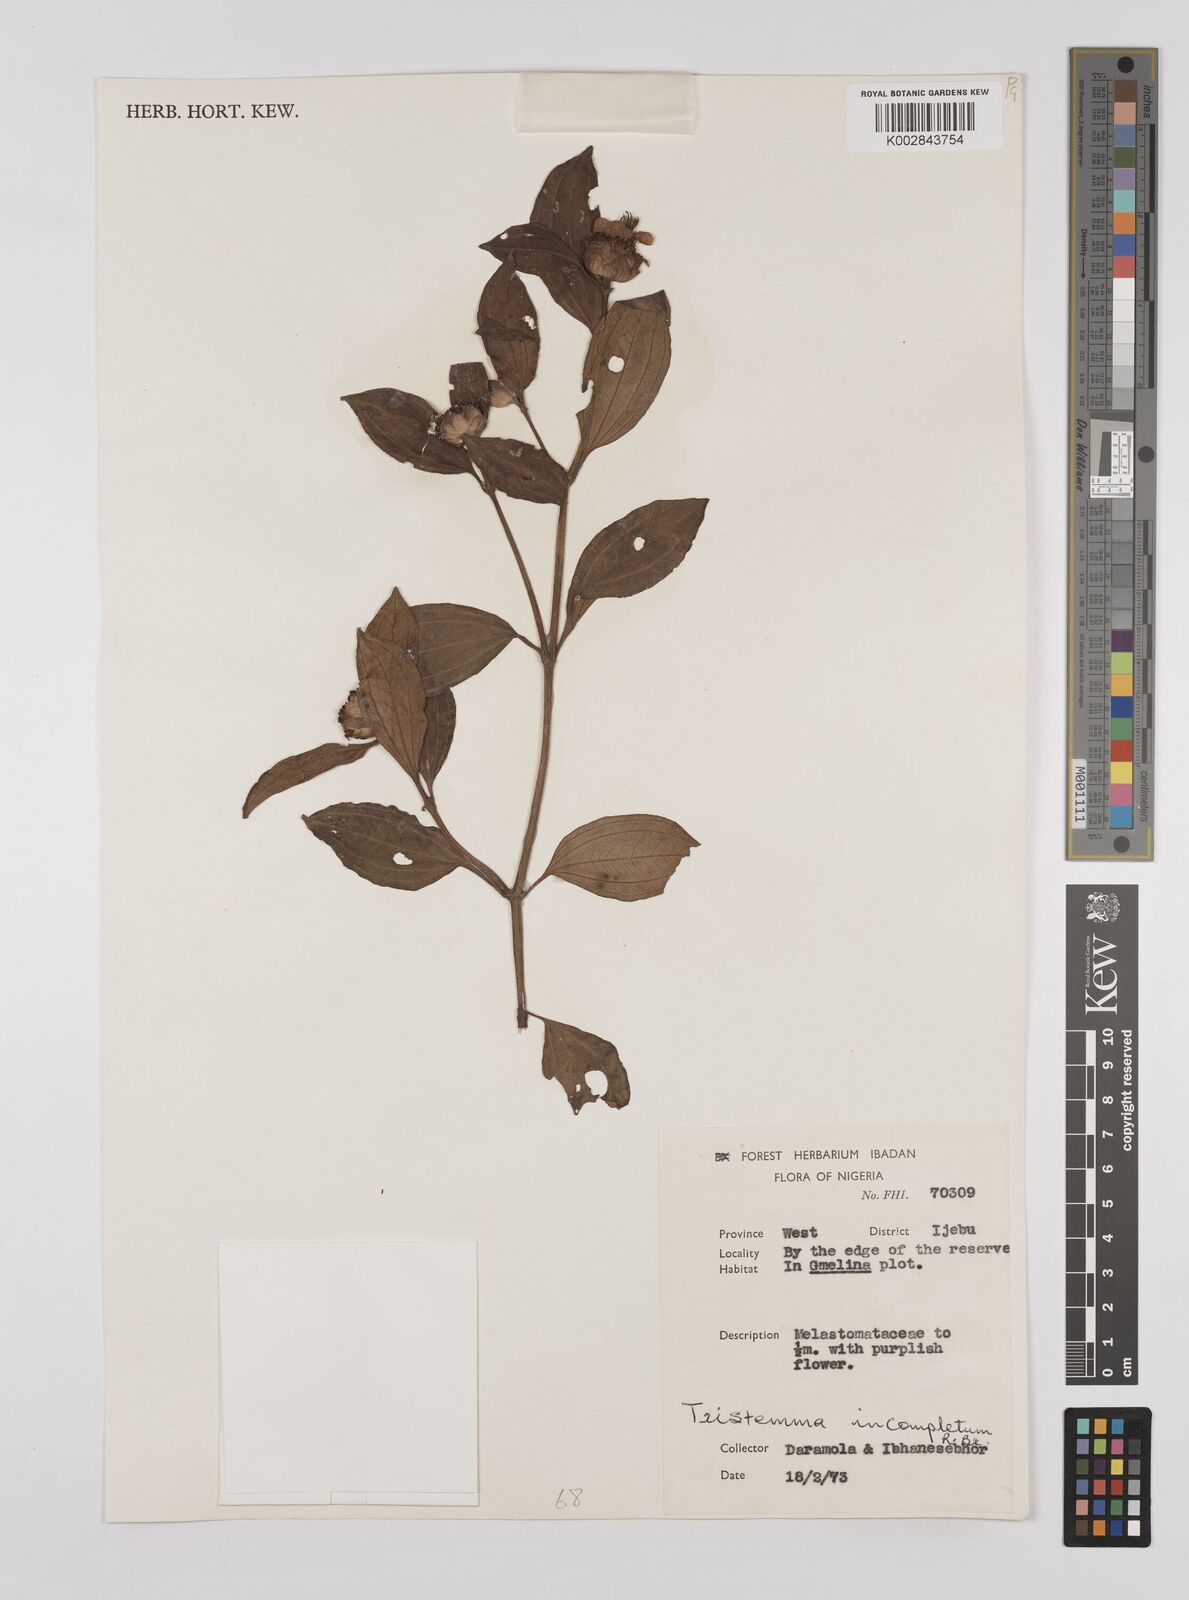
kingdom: Plantae
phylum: Tracheophyta
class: Magnoliopsida
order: Myrtales
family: Melastomataceae
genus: Tristemma
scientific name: Tristemma mauritianum
